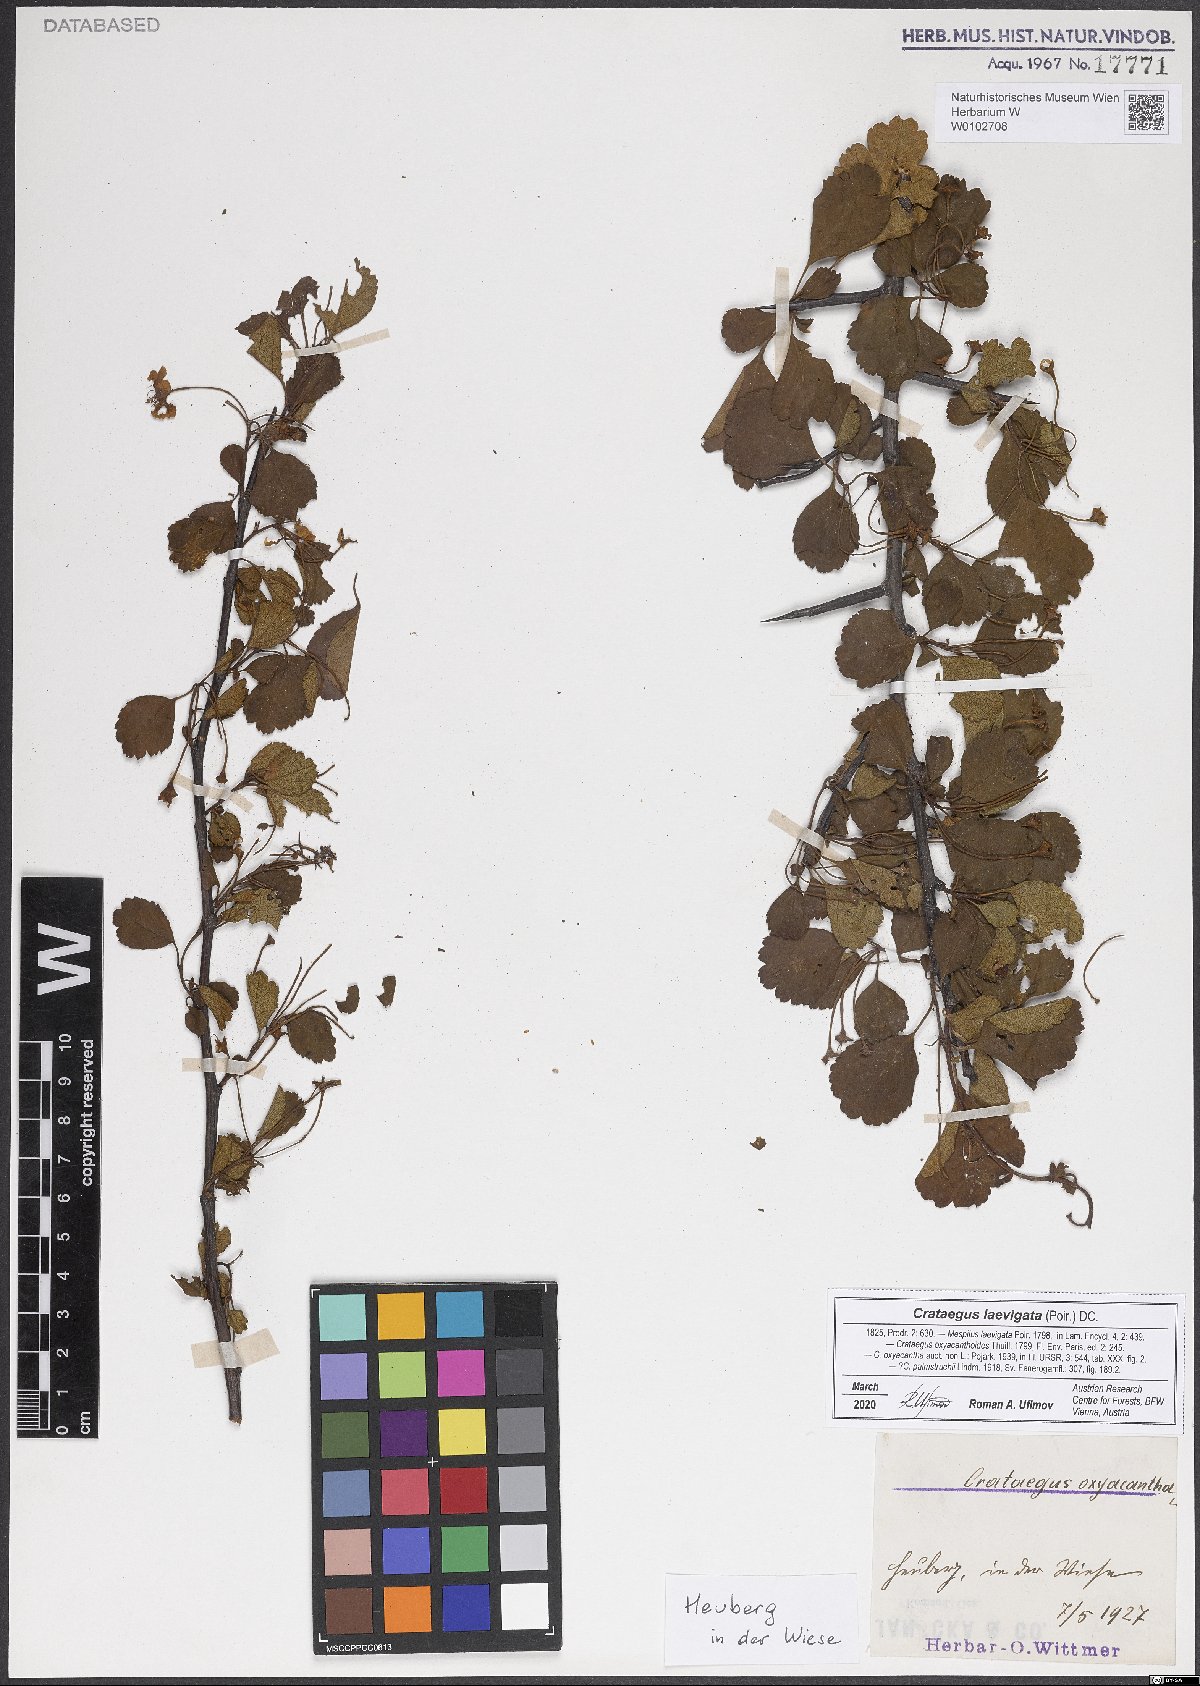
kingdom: Plantae
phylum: Tracheophyta
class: Magnoliopsida
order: Rosales
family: Rosaceae
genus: Crataegus
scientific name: Crataegus laevigata
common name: Midland hawthorn
